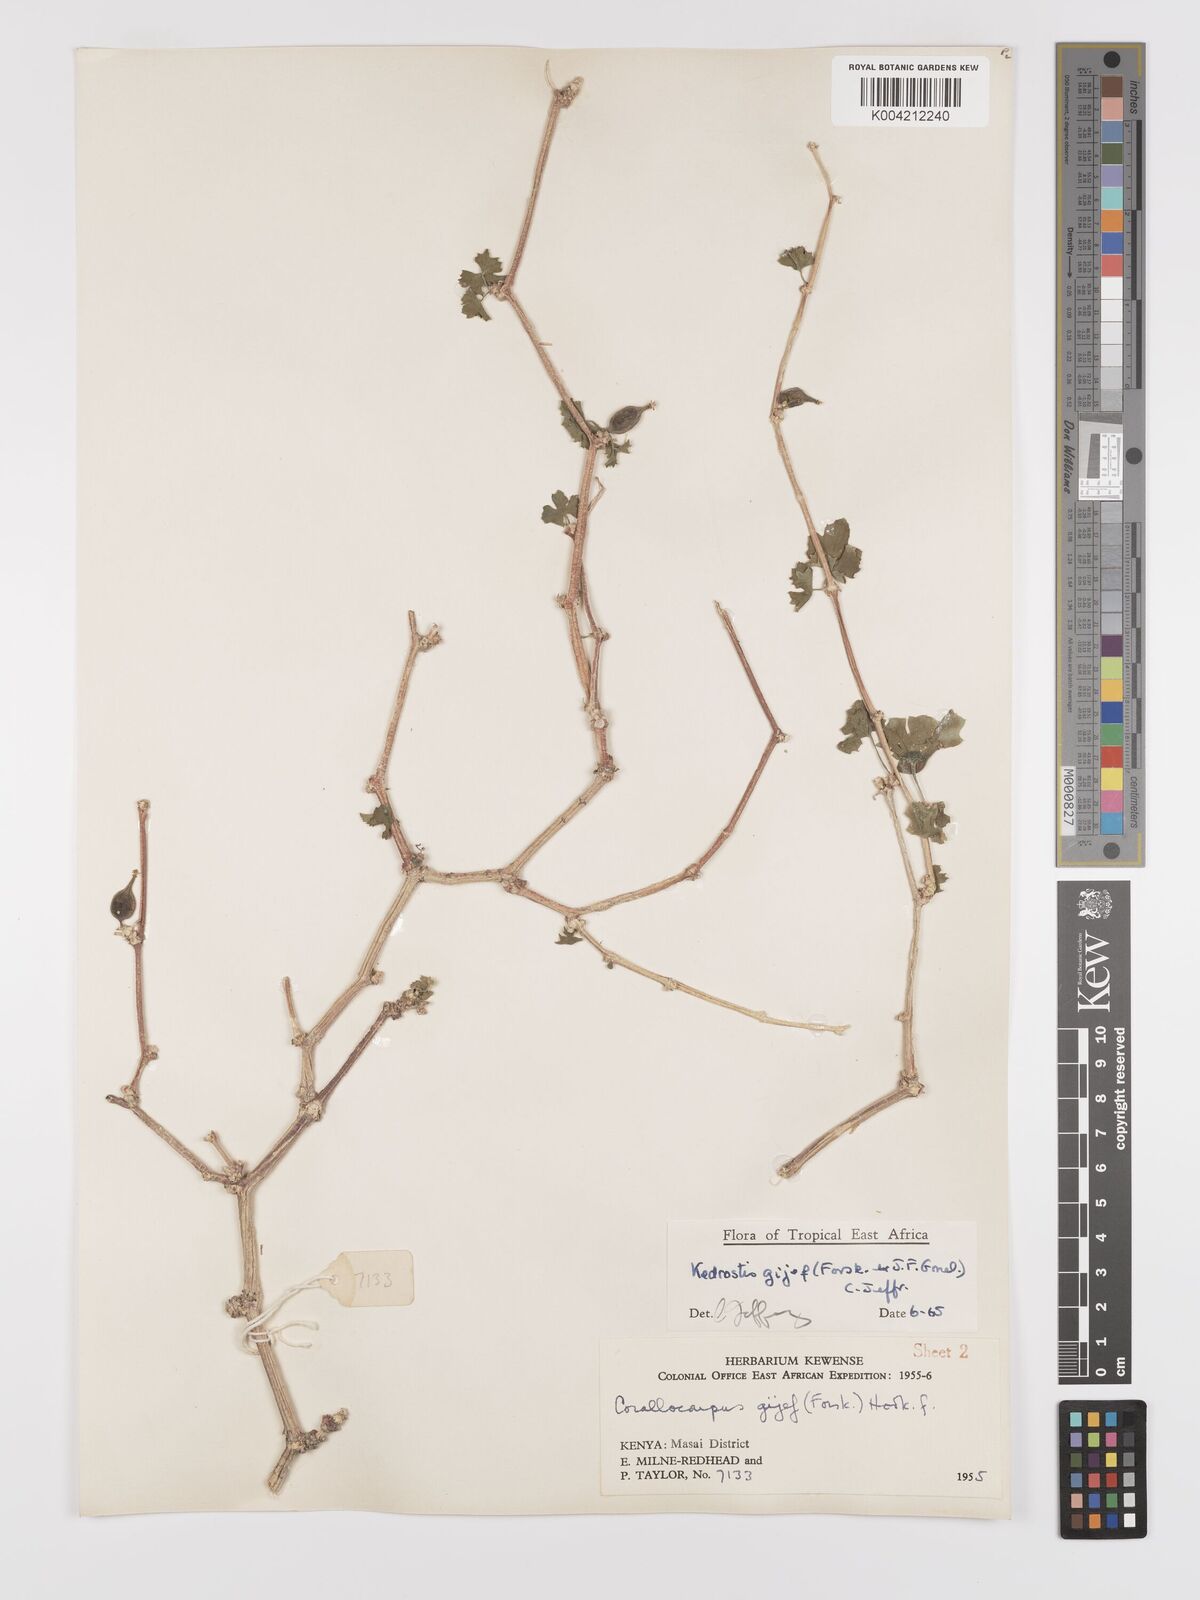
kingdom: Plantae
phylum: Tracheophyta
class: Magnoliopsida
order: Cucurbitales
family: Cucurbitaceae
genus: Kedrostis
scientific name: Kedrostis gijef
